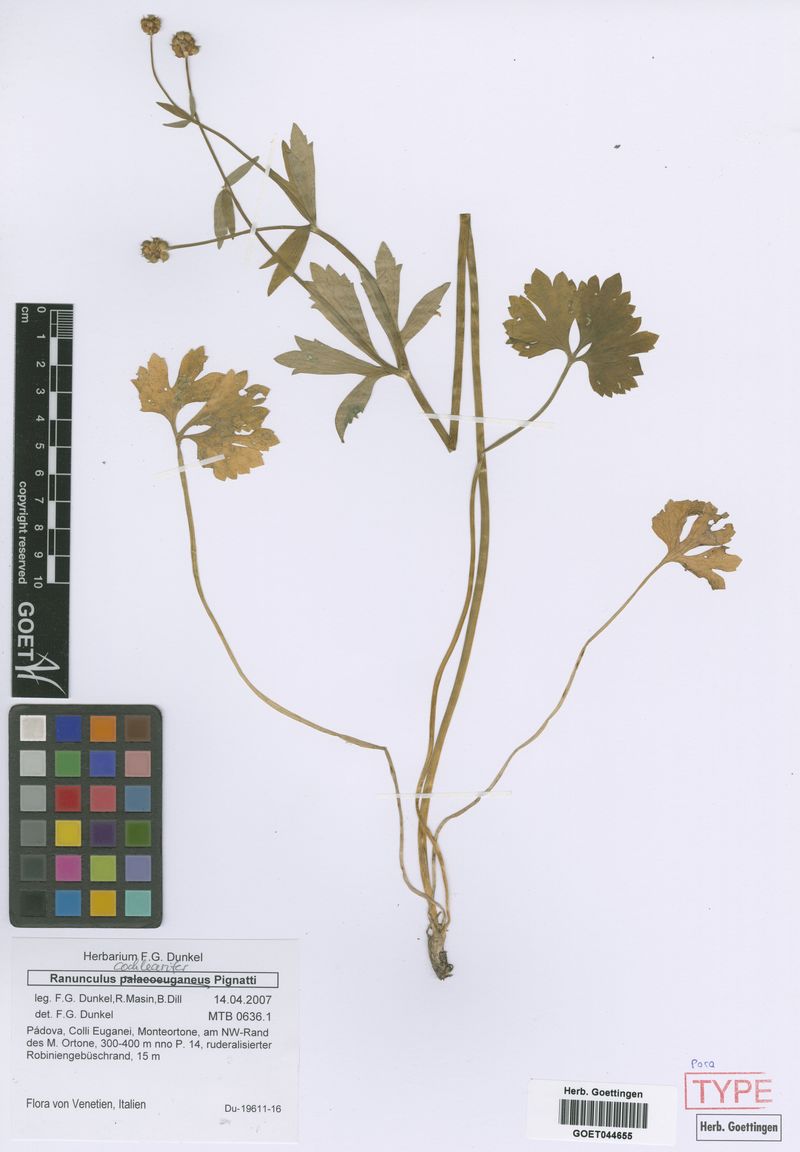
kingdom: Plantae
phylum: Tracheophyta
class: Magnoliopsida
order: Ranunculales
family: Ranunculaceae
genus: Ranunculus
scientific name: Ranunculus cochlearifer
